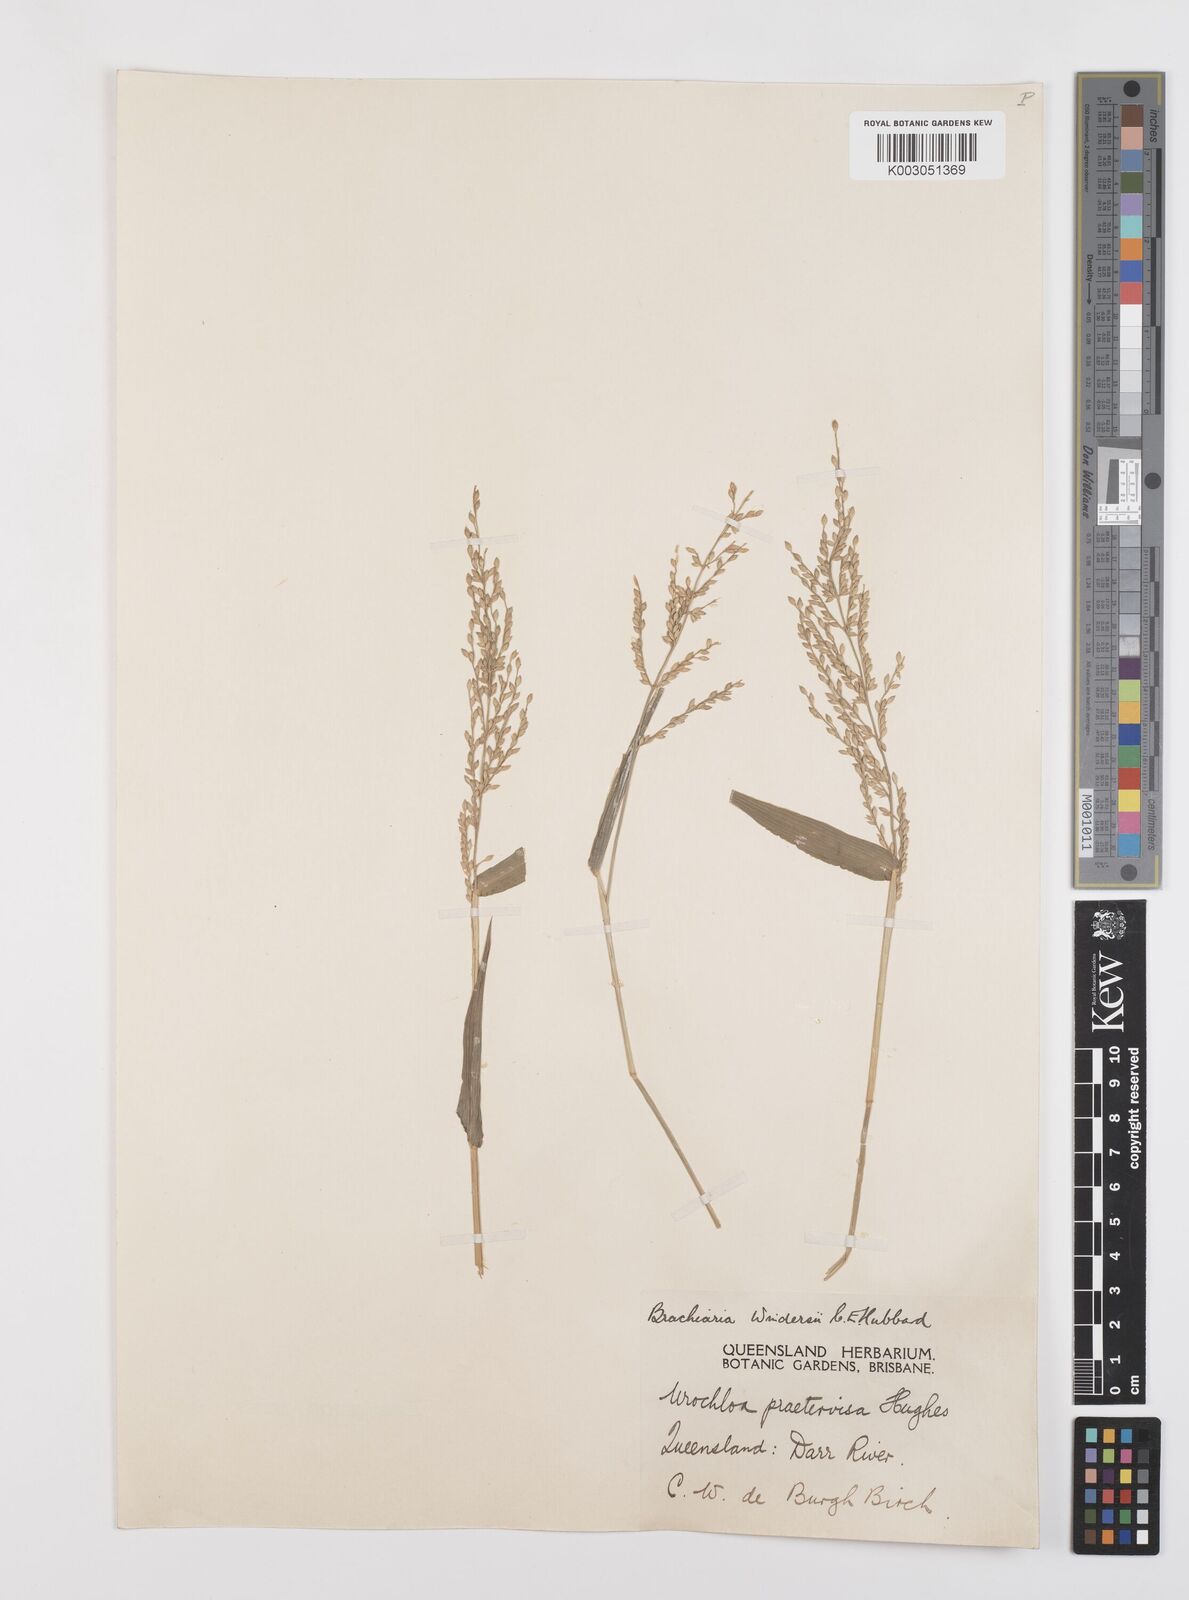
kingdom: Plantae
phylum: Tracheophyta
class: Liliopsida
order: Poales
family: Poaceae
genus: Urochloa
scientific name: Urochloa whiteana
